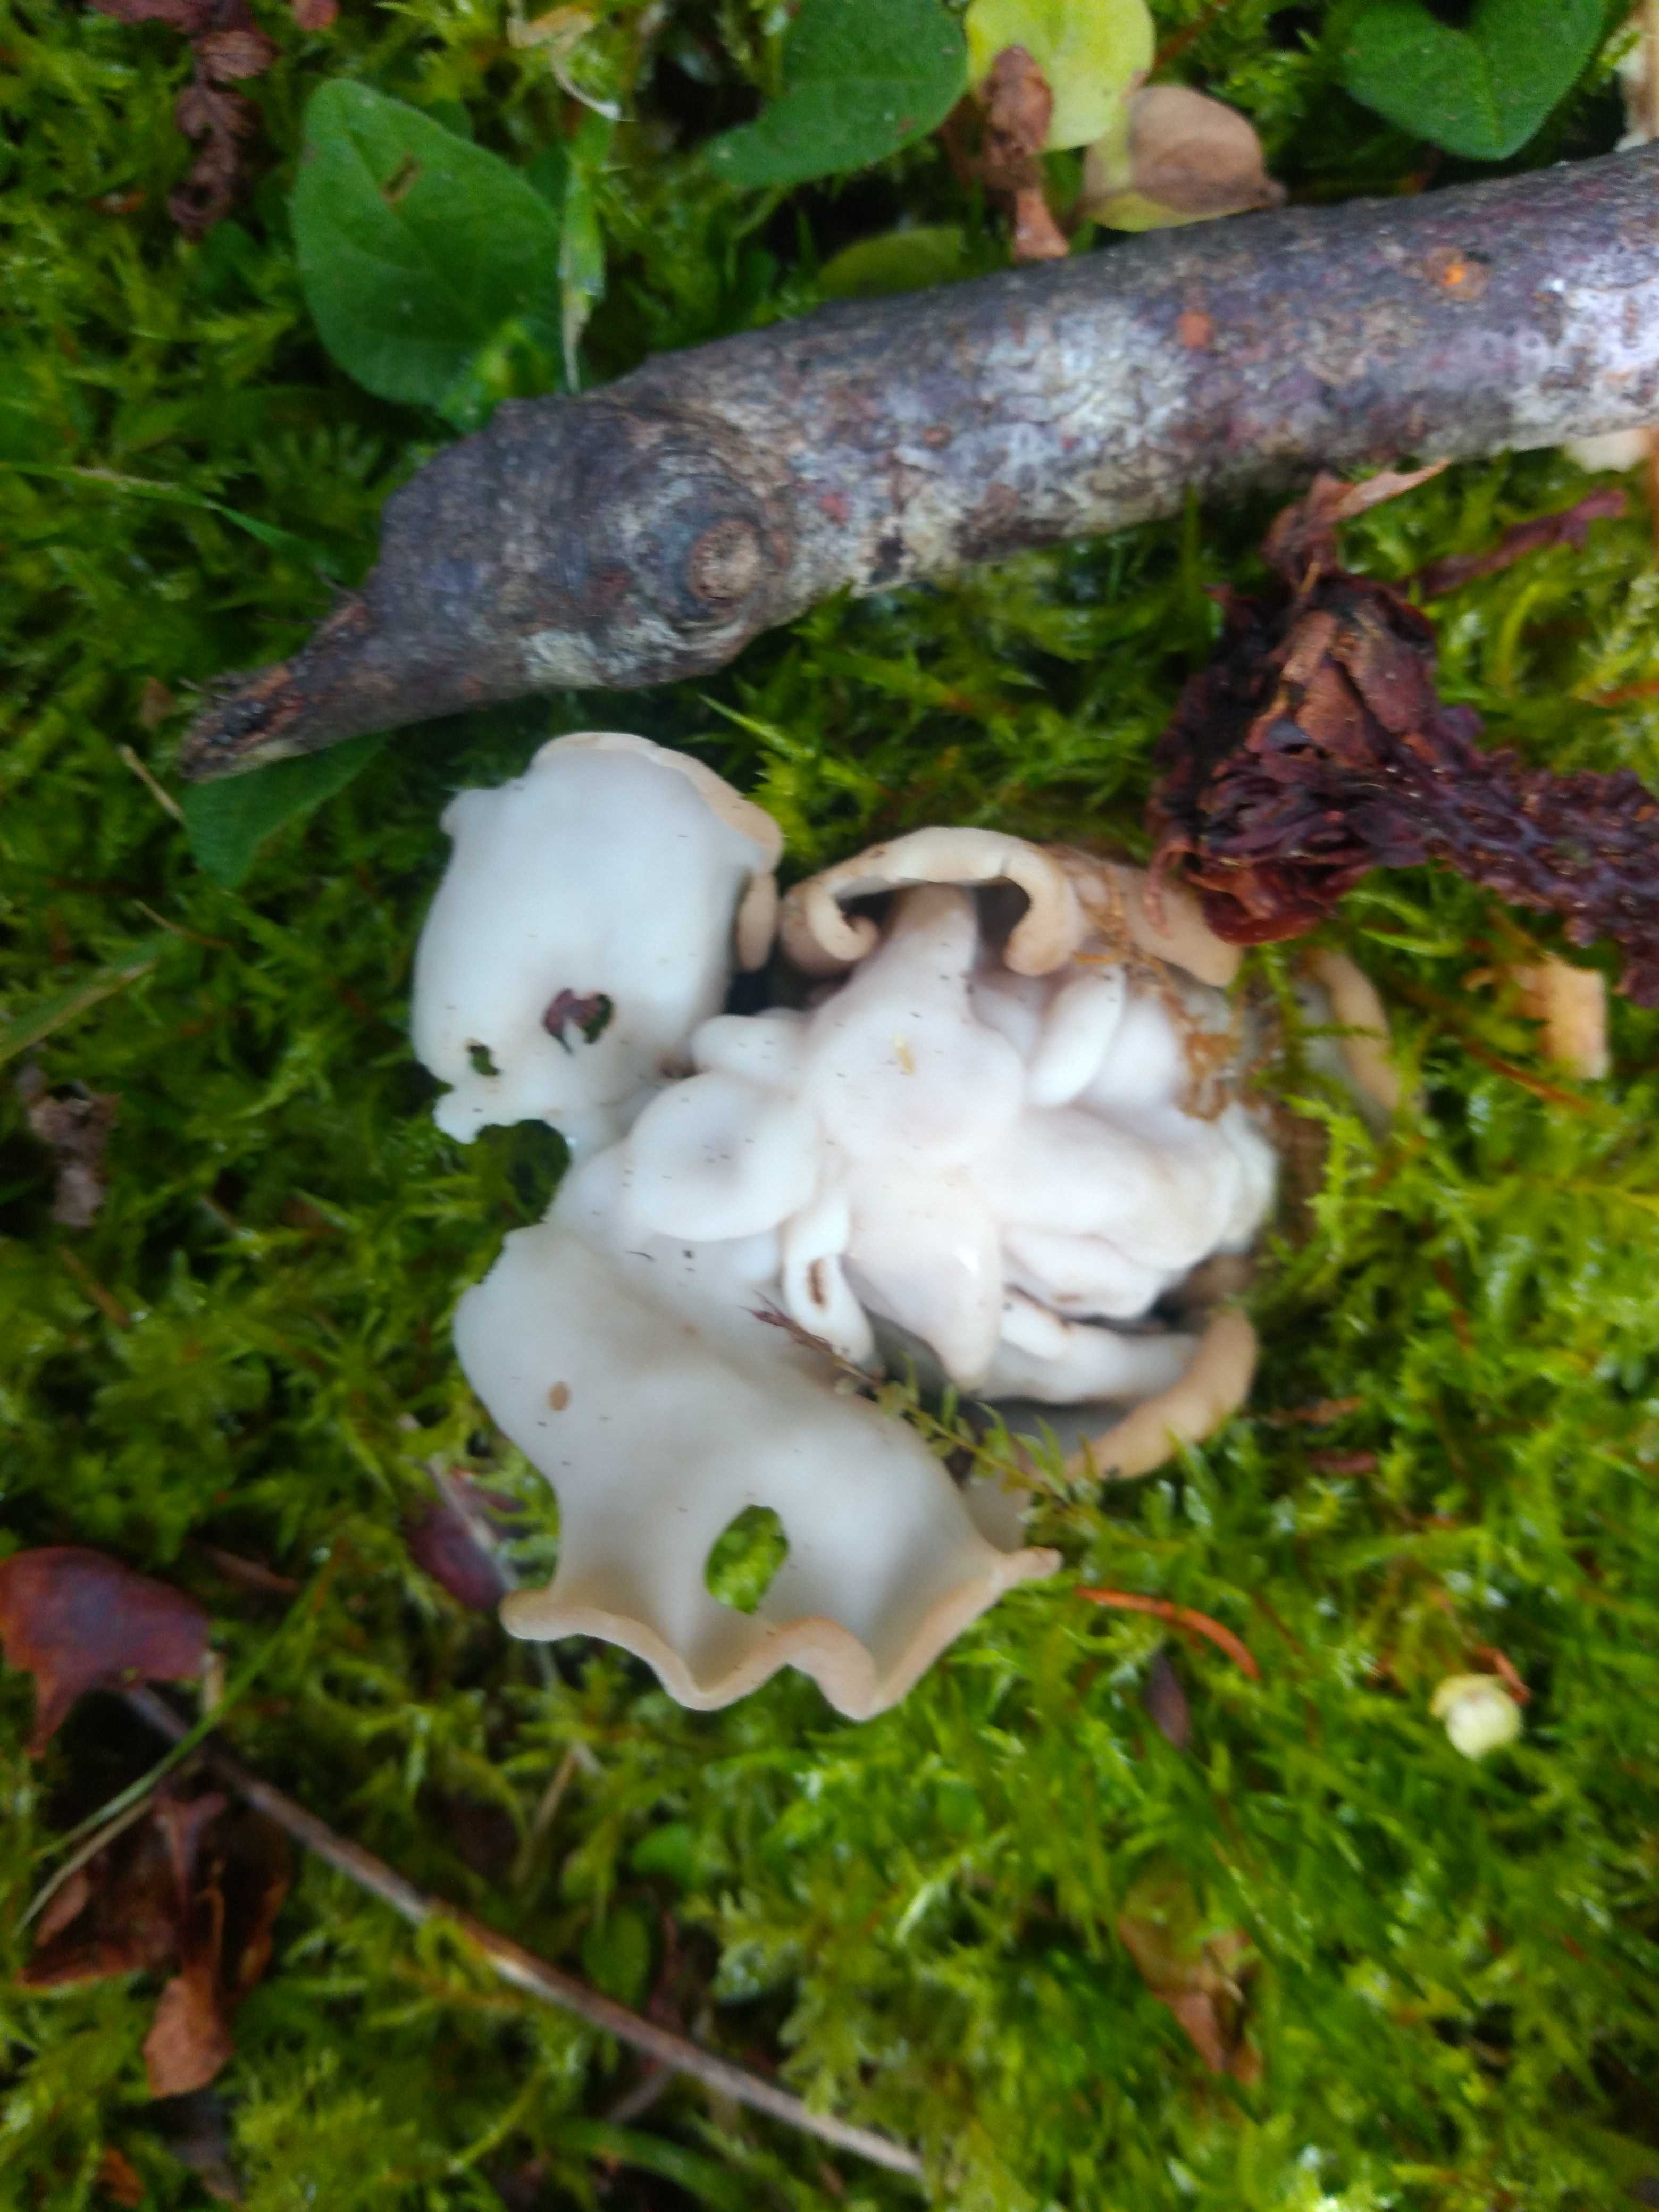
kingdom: Fungi
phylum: Ascomycota
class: Pezizomycetes
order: Pezizales
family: Helvellaceae
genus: Helvella
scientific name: Helvella crispa
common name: kruset foldhat
